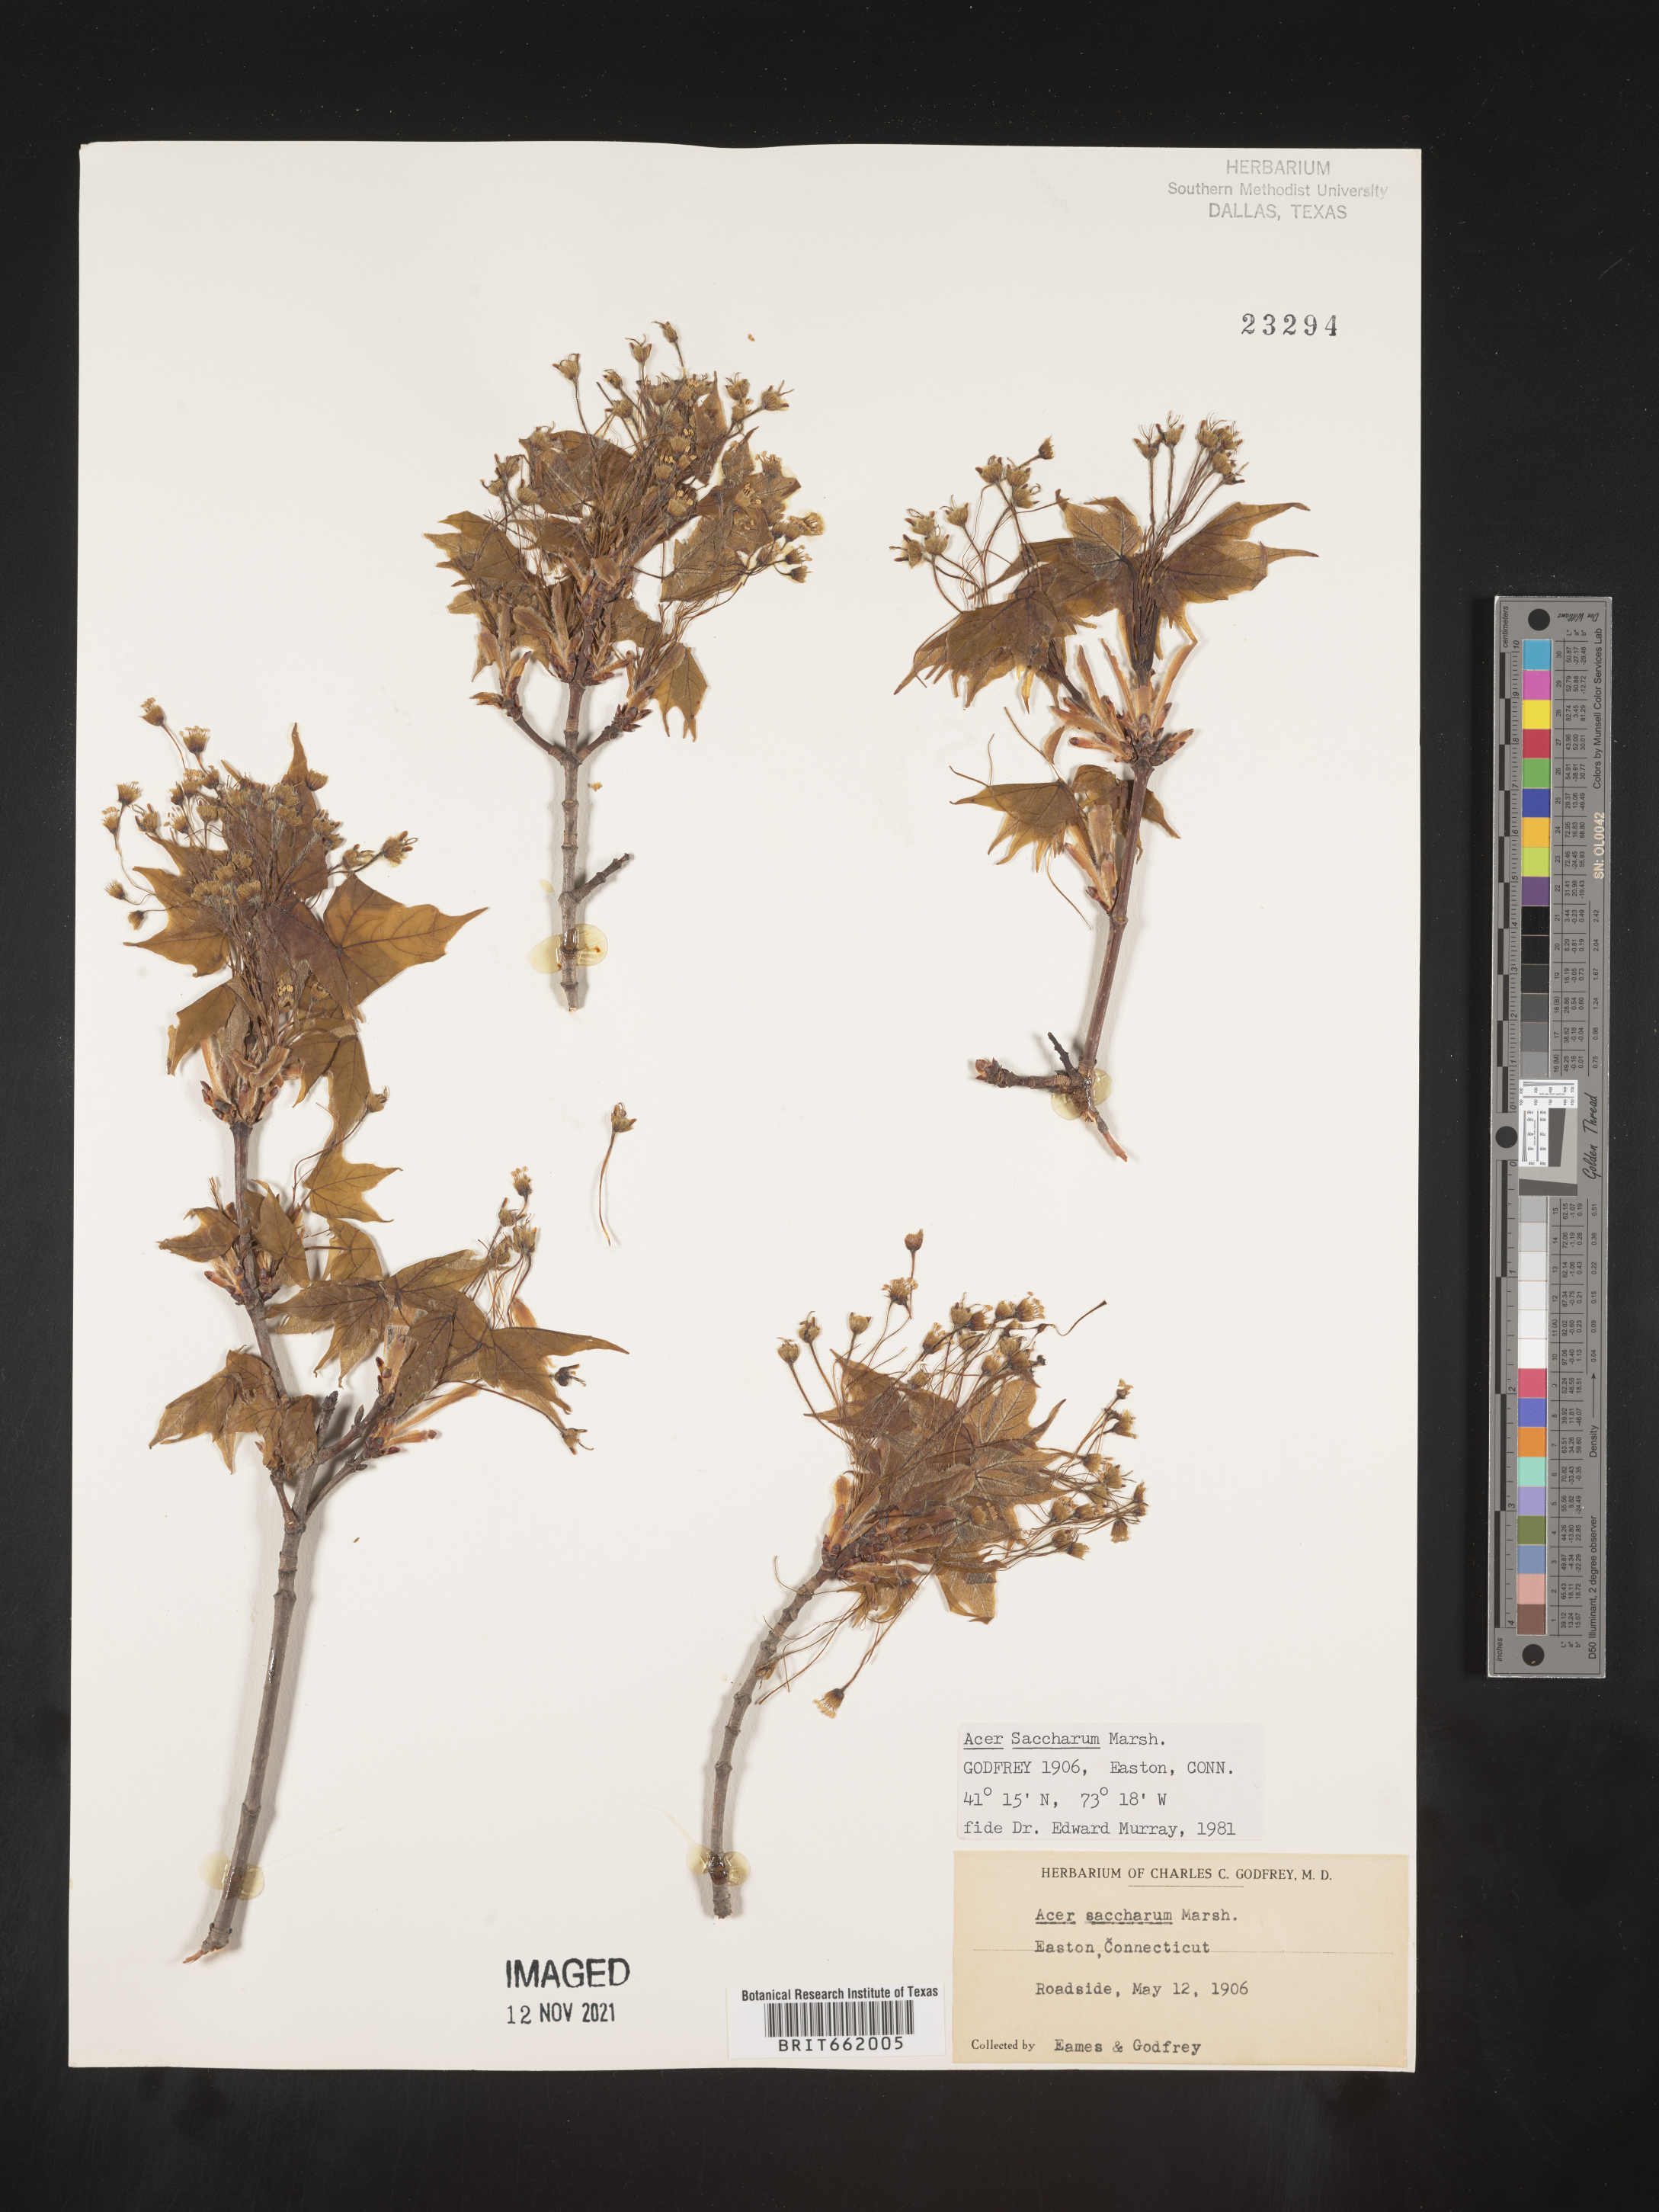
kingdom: Plantae
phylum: Tracheophyta
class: Magnoliopsida
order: Sapindales
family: Sapindaceae
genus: Acer
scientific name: Acer saccharum
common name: Sugar maple
